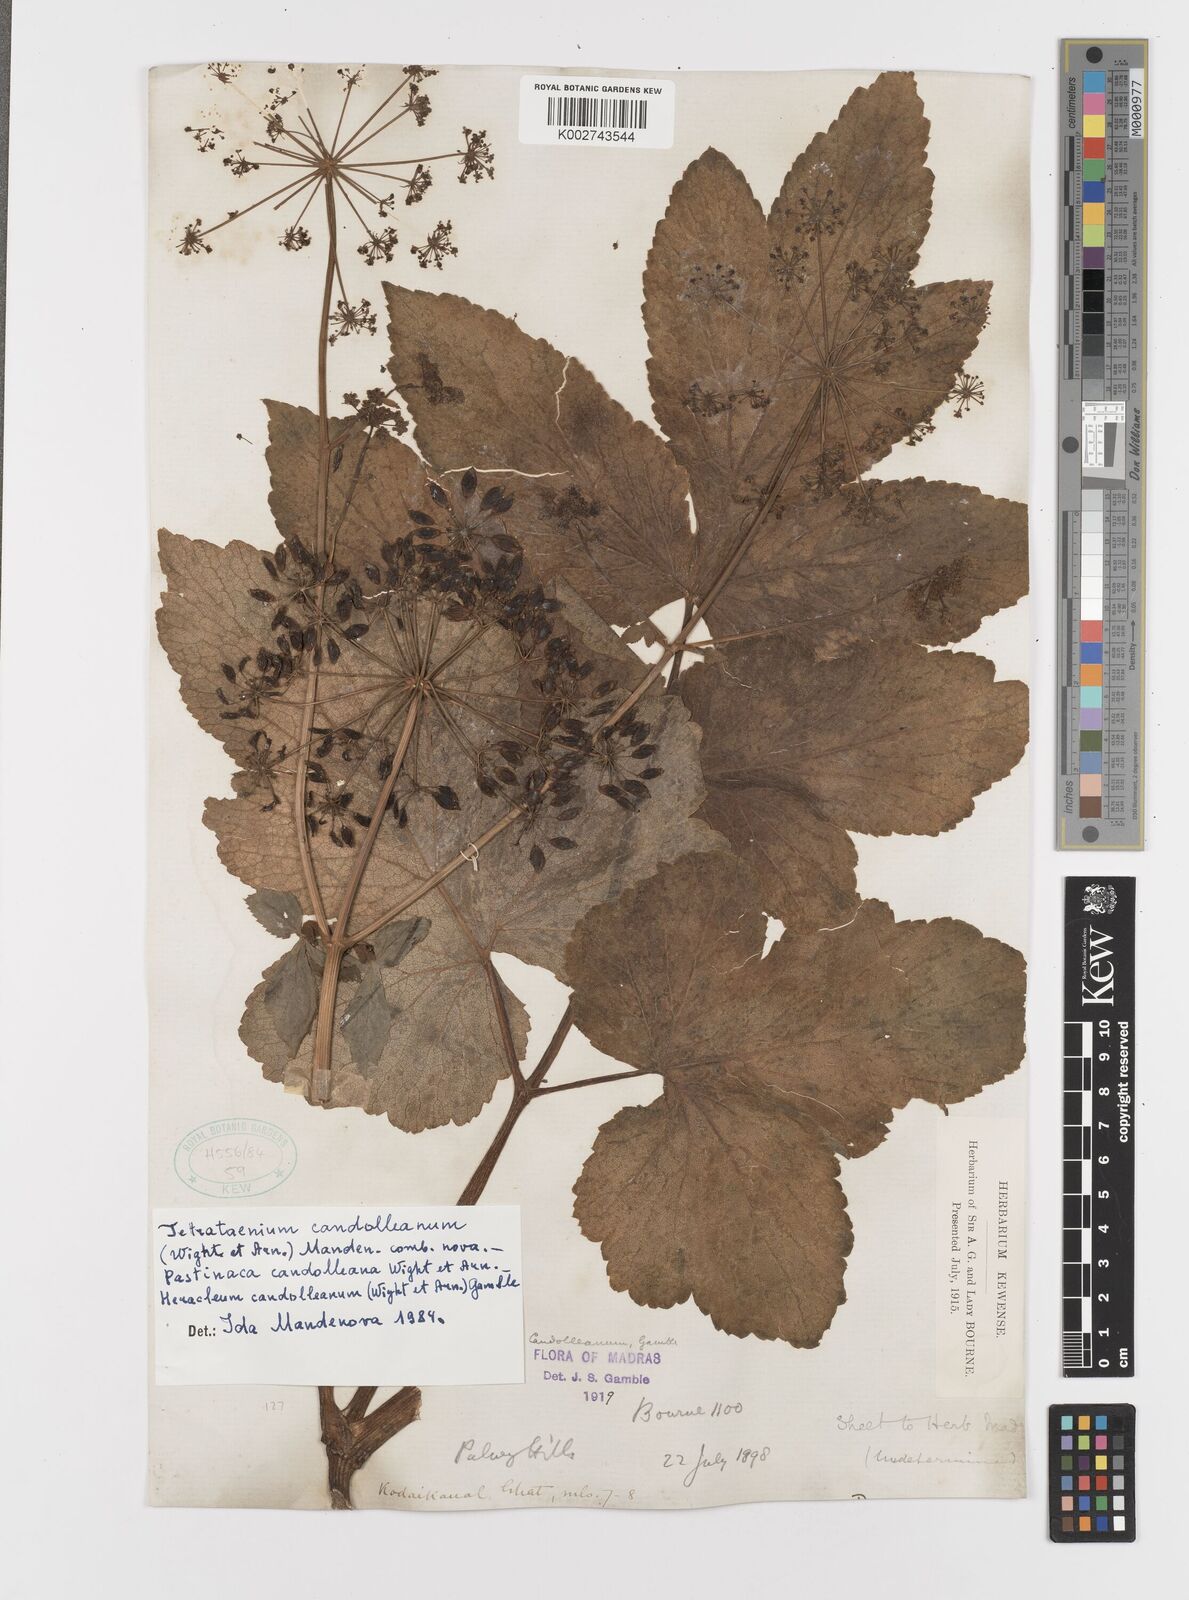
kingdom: Plantae
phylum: Tracheophyta
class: Magnoliopsida
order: Apiales
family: Apiaceae
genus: Tetrataenium
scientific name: Tetrataenium rigens
